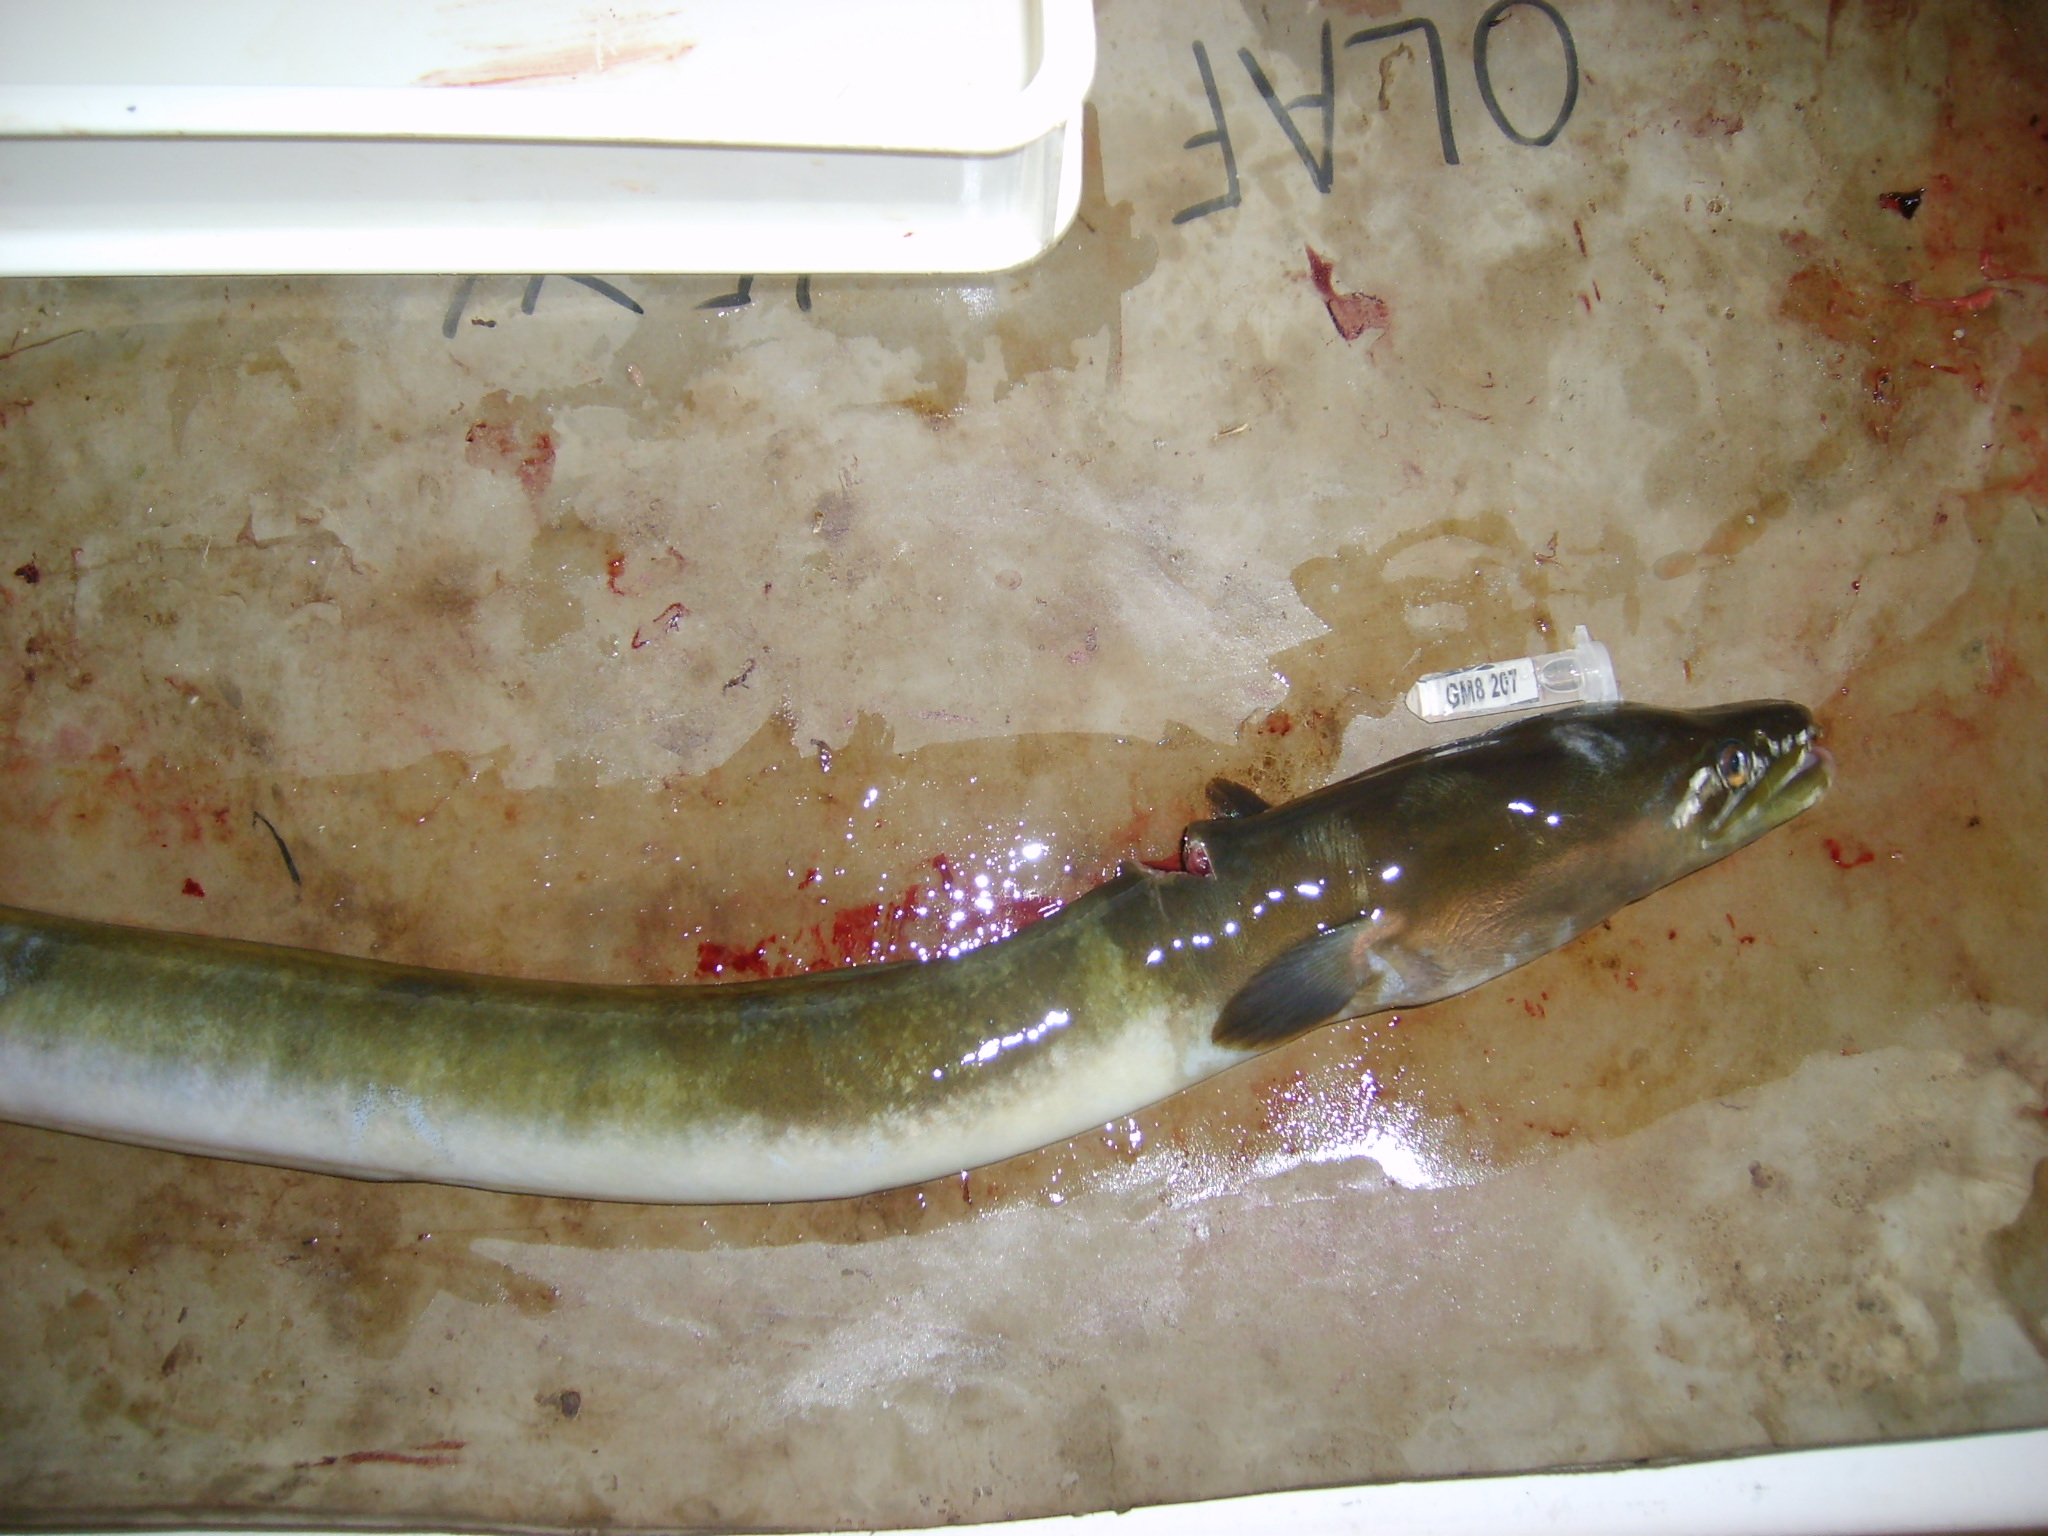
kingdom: Animalia
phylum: Chordata
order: Anguilliformes
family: Anguillidae
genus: Anguilla
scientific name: Anguilla mossambica
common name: African longfin eel
